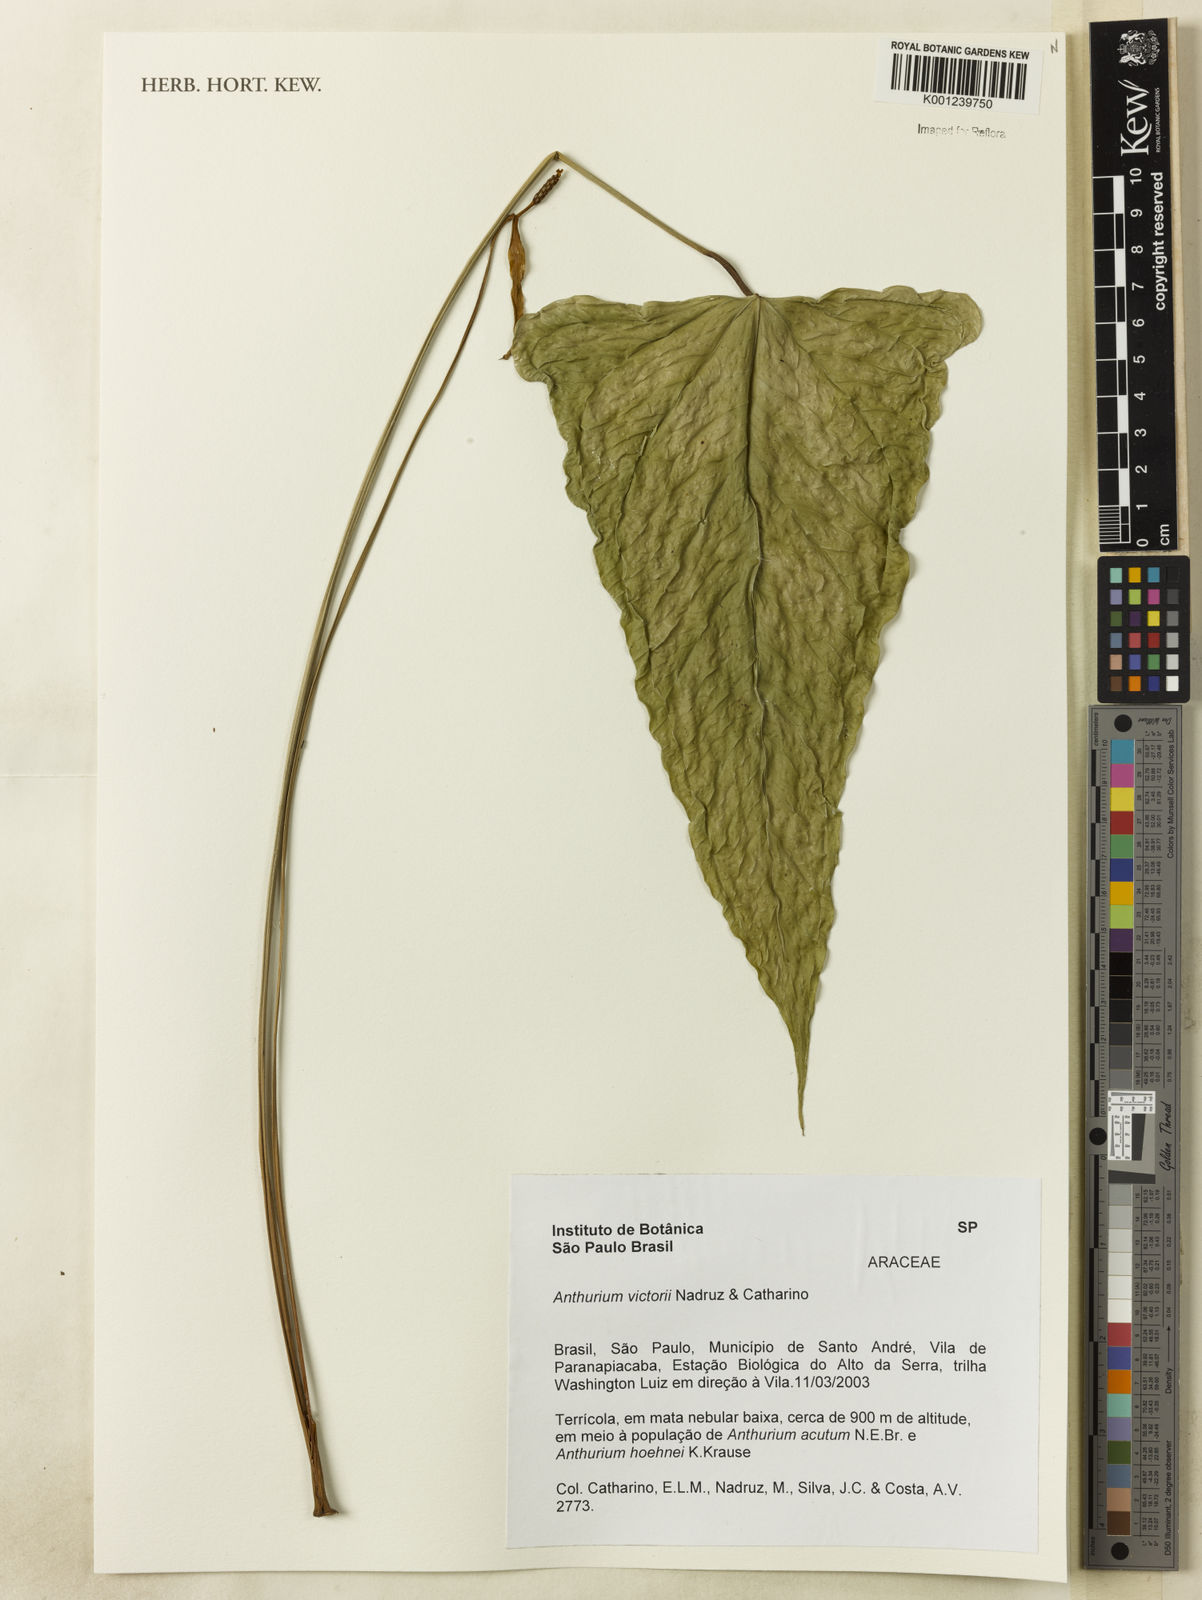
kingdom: Plantae
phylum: Tracheophyta
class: Liliopsida
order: Alismatales
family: Araceae
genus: Anthurium
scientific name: Anthurium victorii
